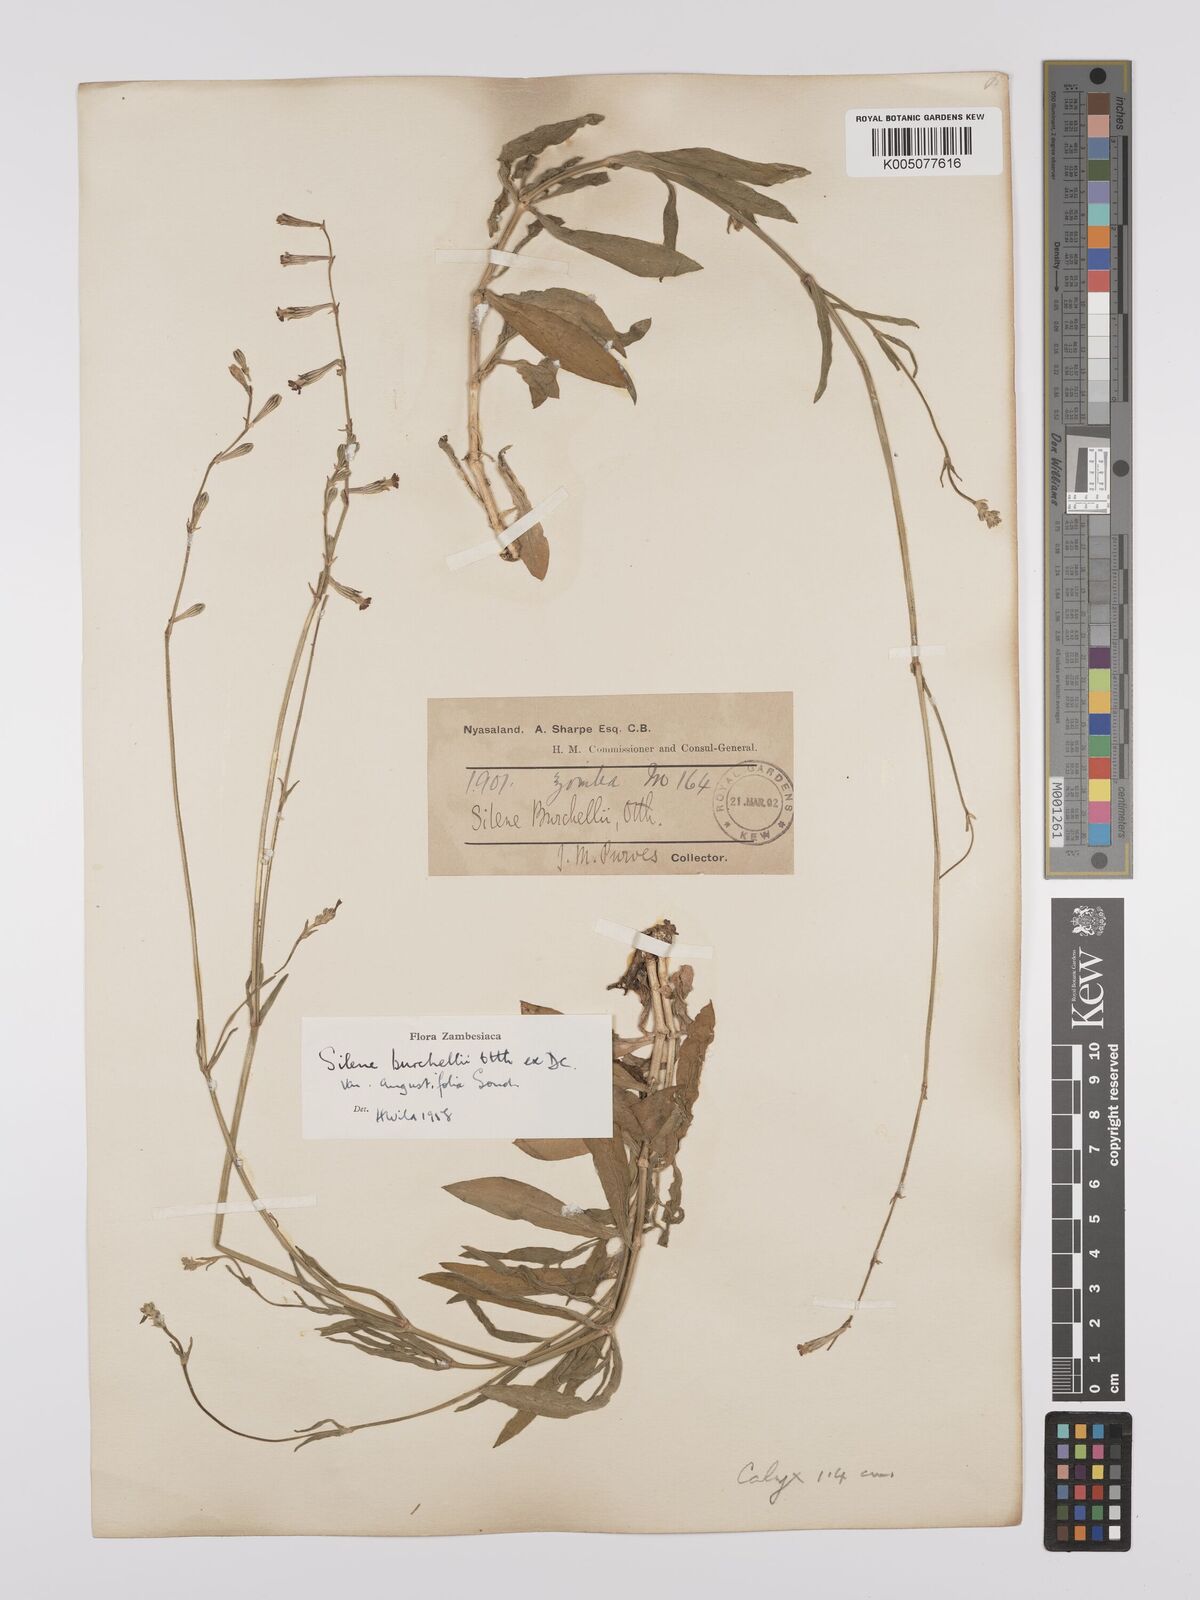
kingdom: Plantae
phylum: Tracheophyta
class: Magnoliopsida
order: Caryophyllales
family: Caryophyllaceae
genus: Silene
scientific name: Silene burchellii
